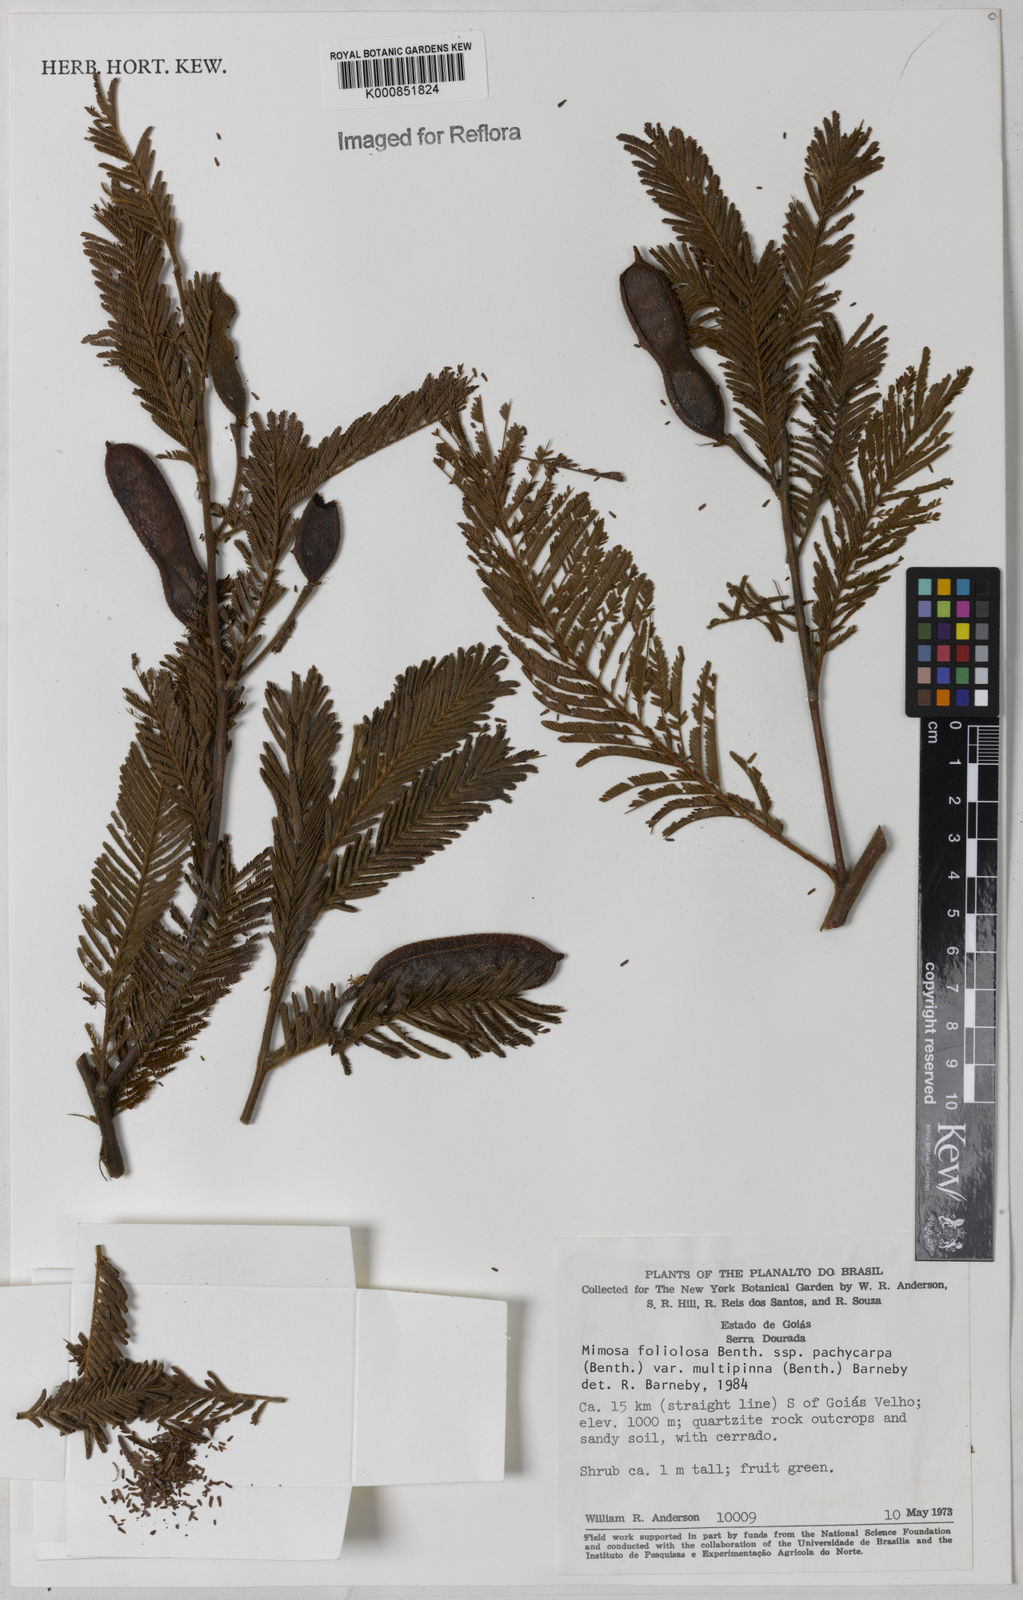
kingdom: Plantae
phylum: Tracheophyta
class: Magnoliopsida
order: Fabales
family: Fabaceae
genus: Mimosa
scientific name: Mimosa foliolosa
